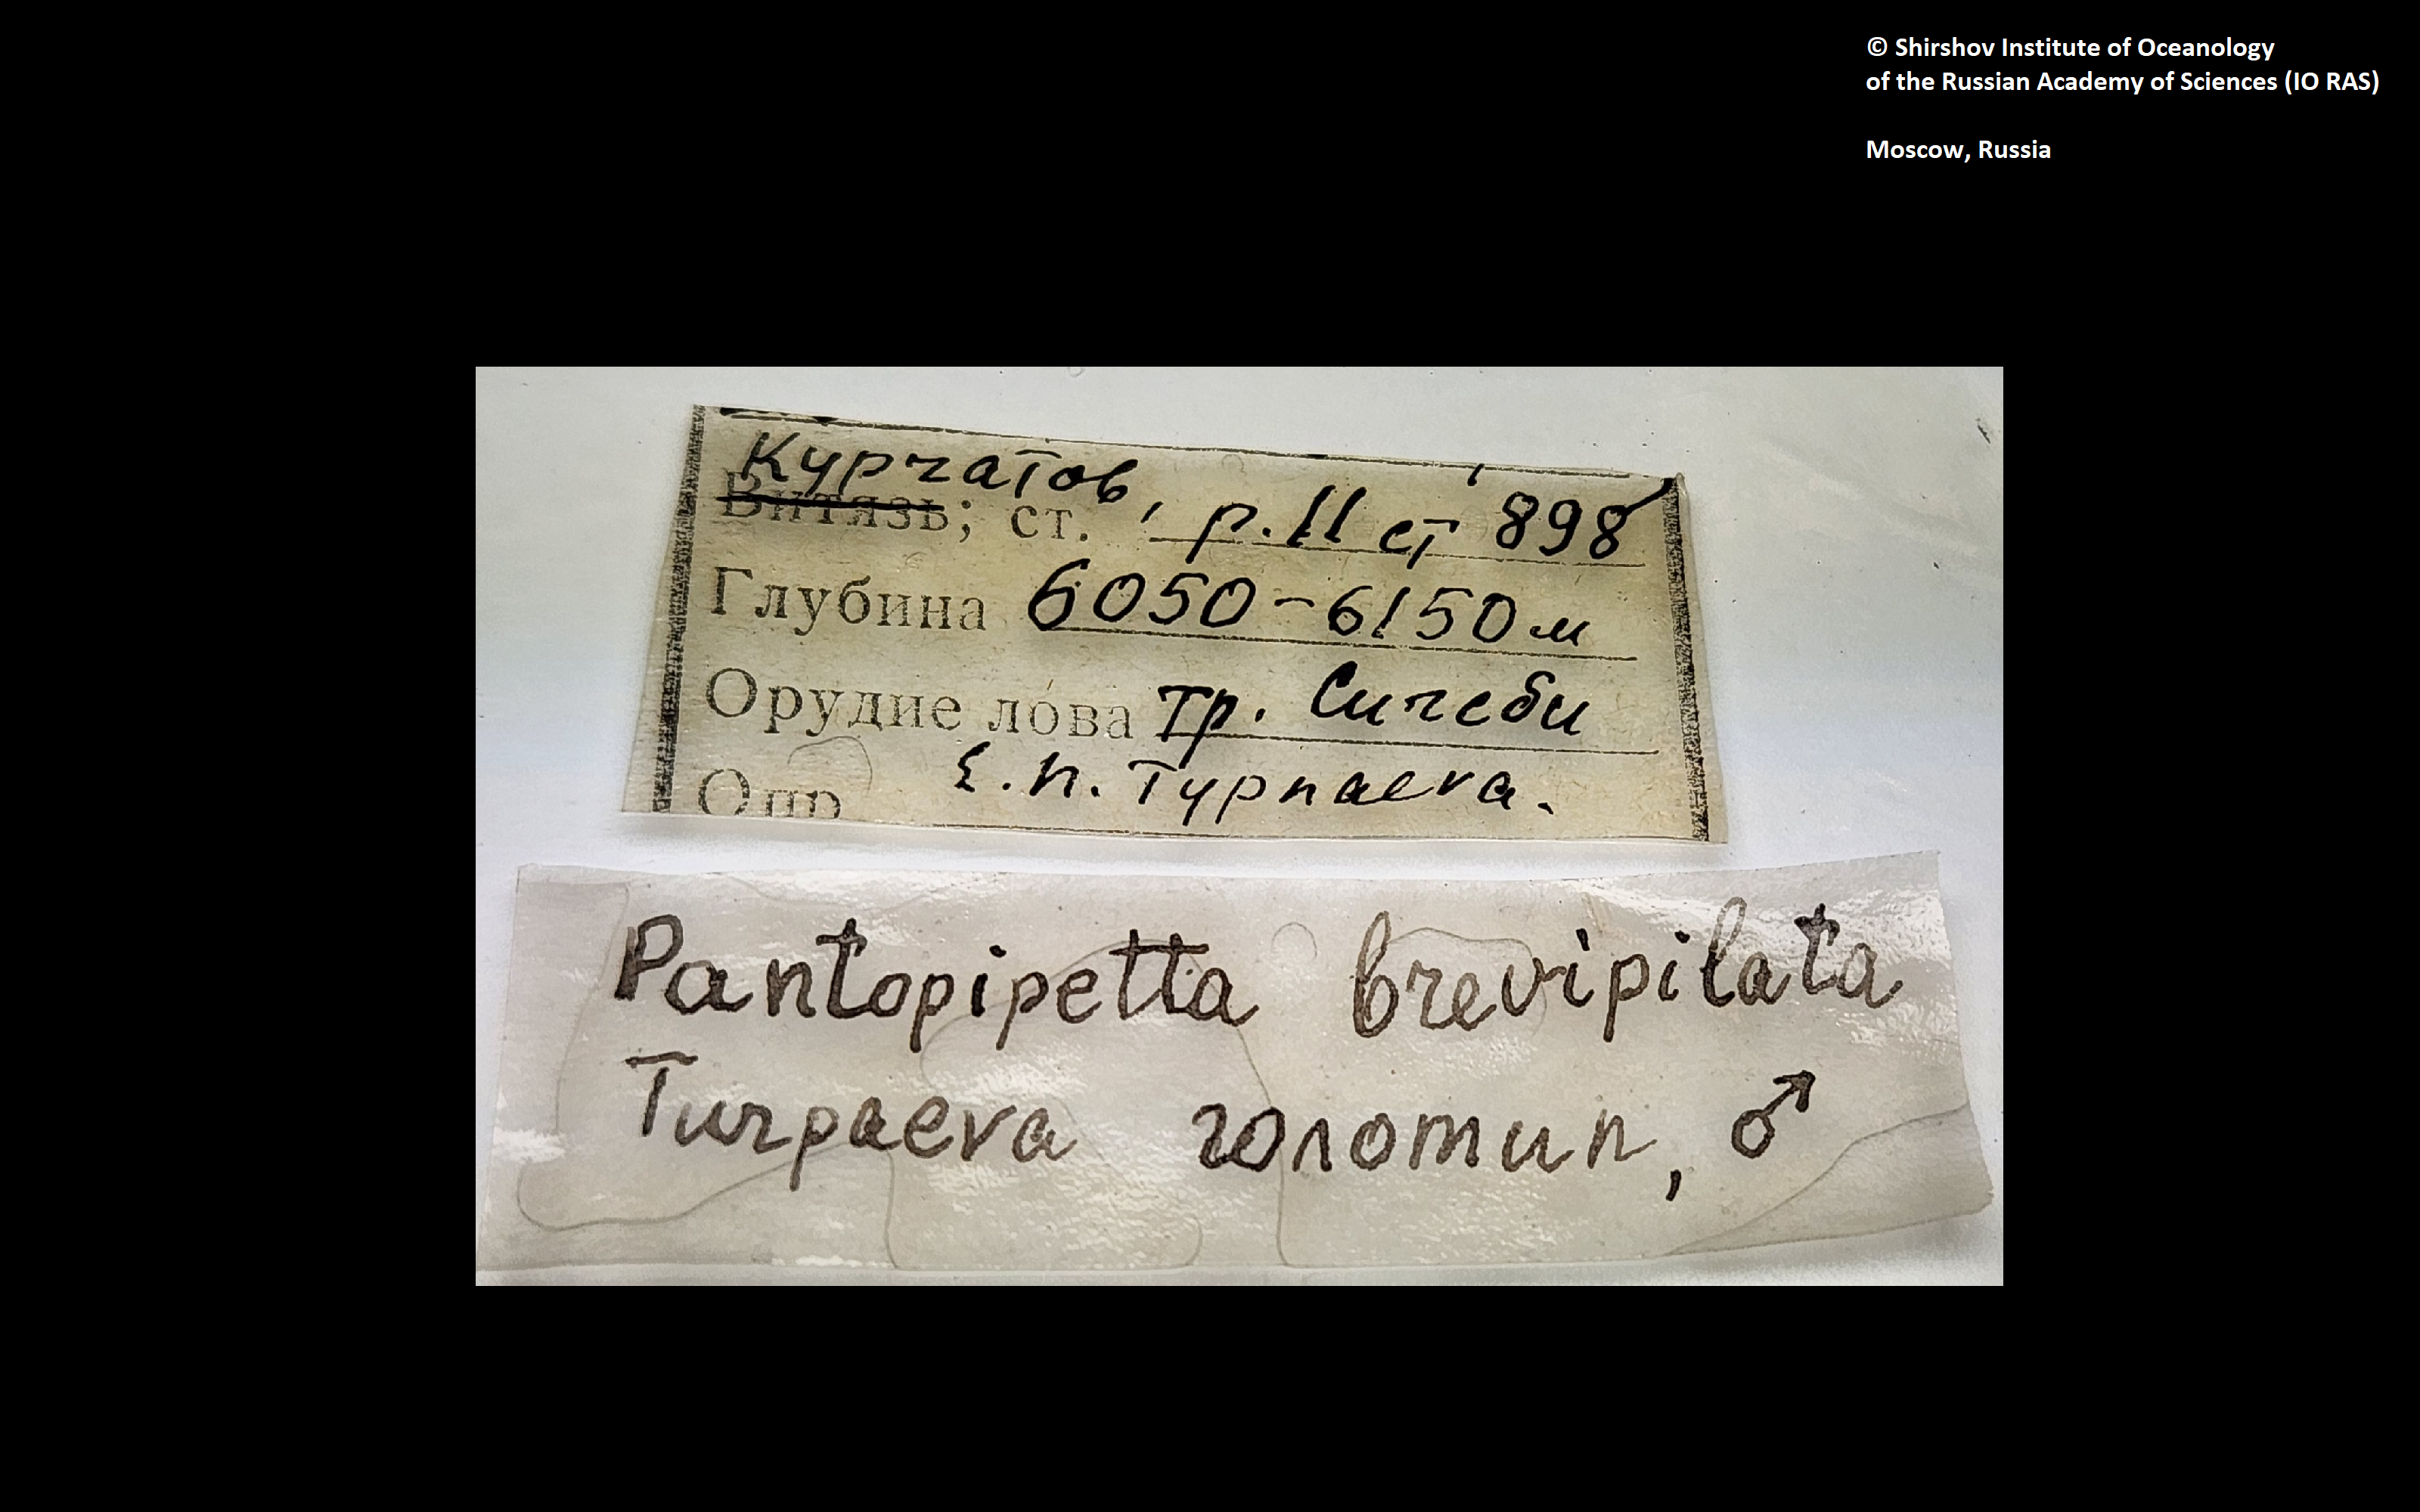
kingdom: Animalia
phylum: Arthropoda
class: Pycnogonida
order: Pantopoda
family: Austrodecidae
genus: Pantopipetta
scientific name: Pantopipetta brevipilata
